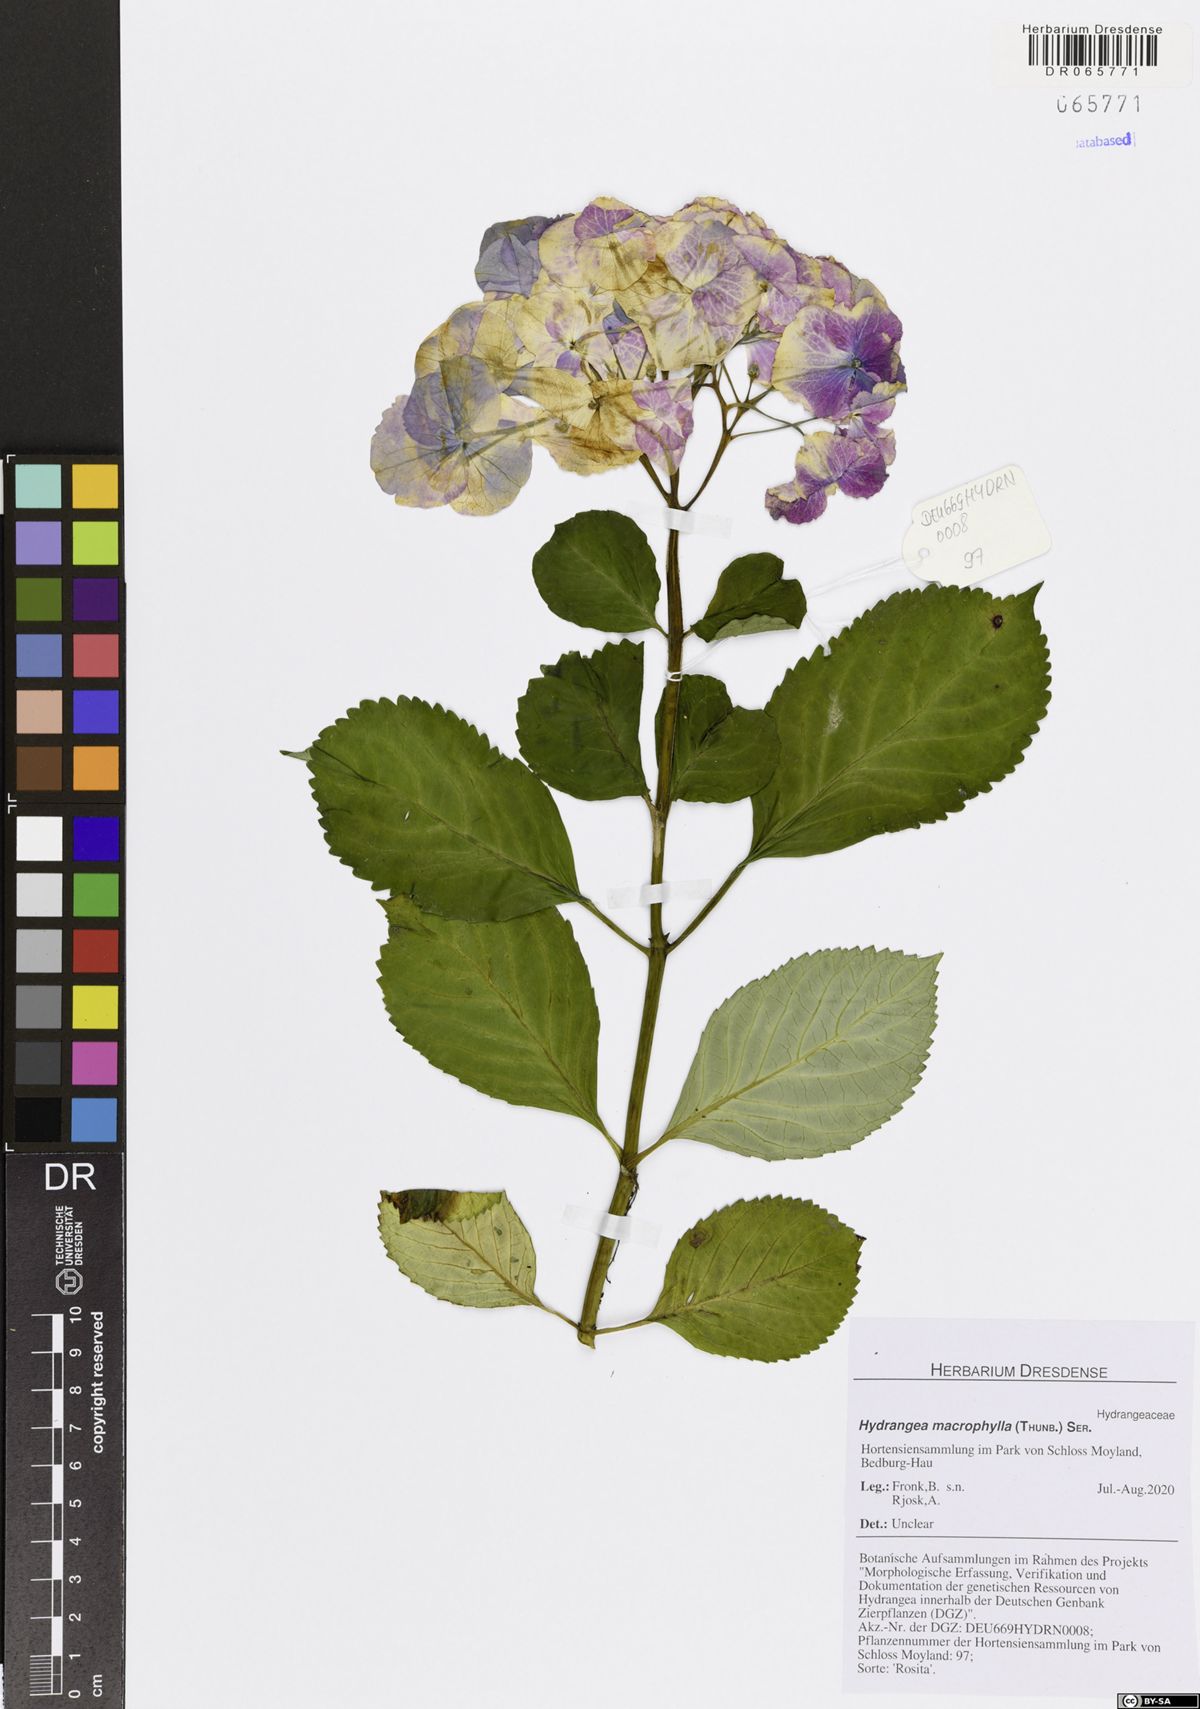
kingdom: Plantae
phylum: Tracheophyta
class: Magnoliopsida
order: Cornales
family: Hydrangeaceae
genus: Hydrangea
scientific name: Hydrangea macrophylla
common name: Hydrangea
